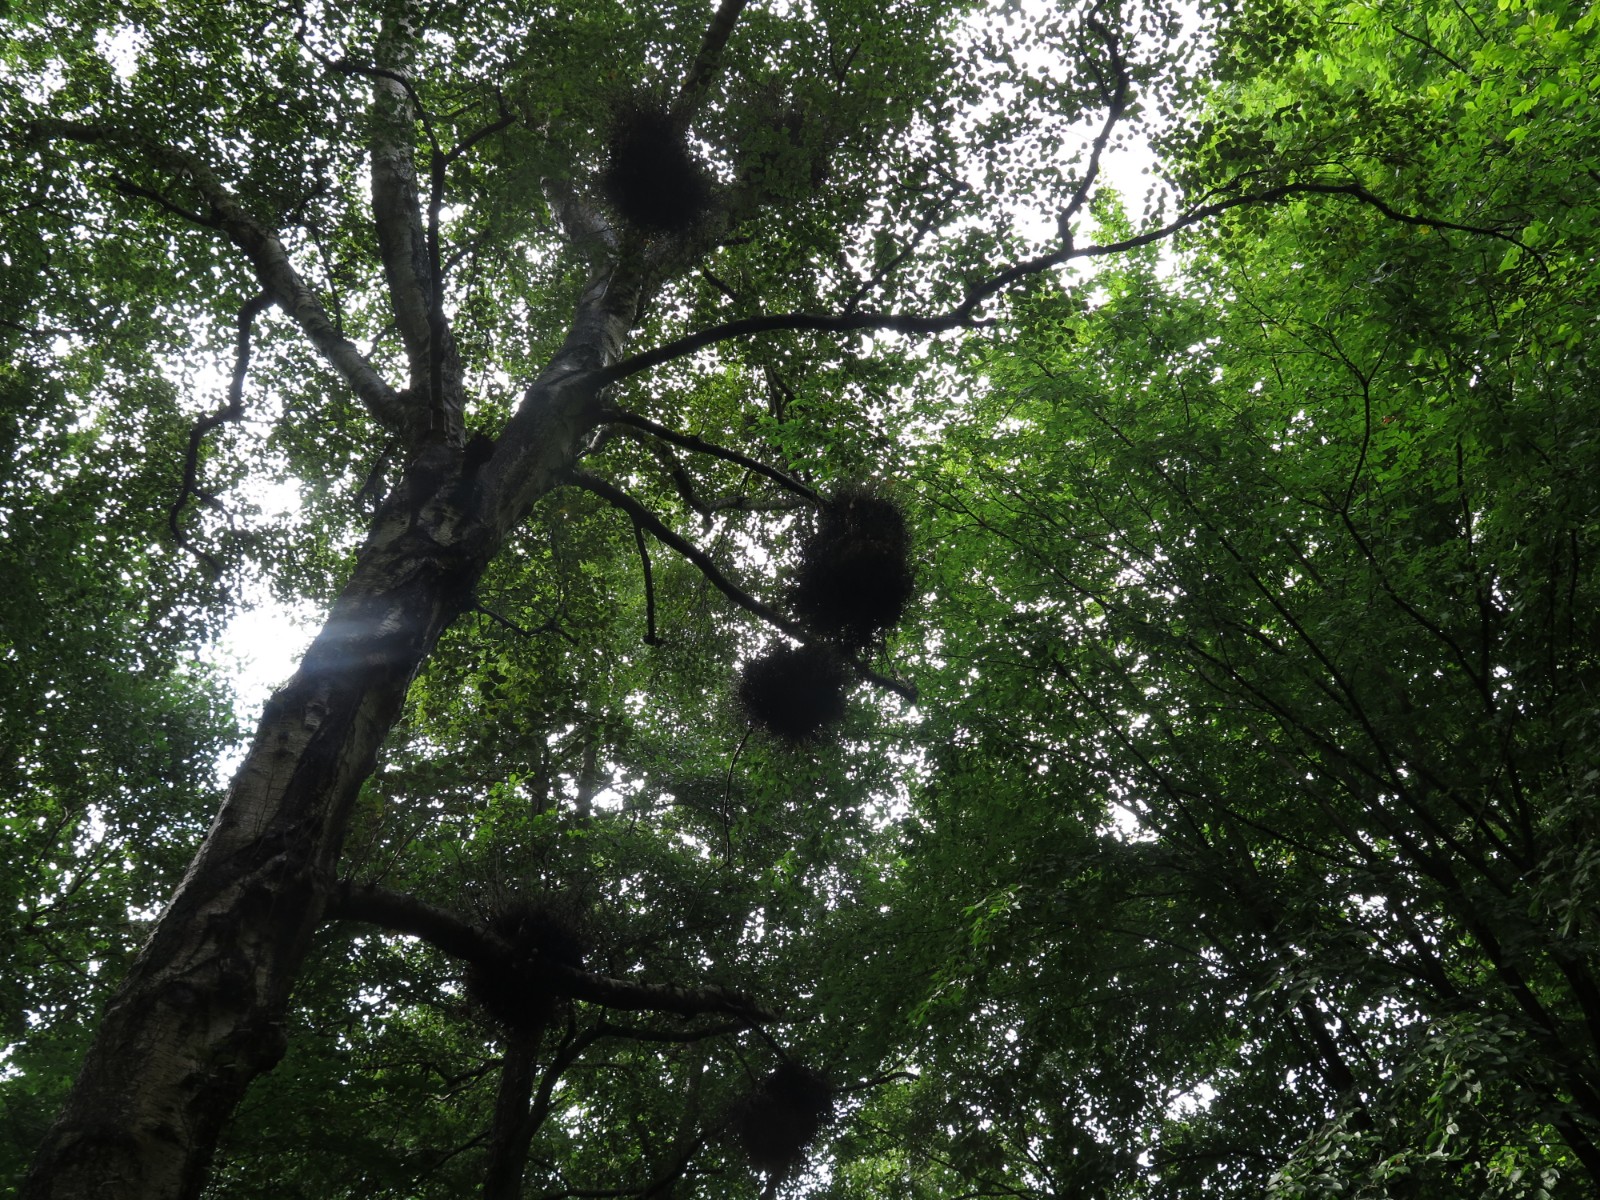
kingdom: Fungi
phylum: Ascomycota
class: Taphrinomycetes
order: Taphrinales
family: Taphrinaceae
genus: Taphrina
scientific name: Taphrina betulina
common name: hekse-sækdug
